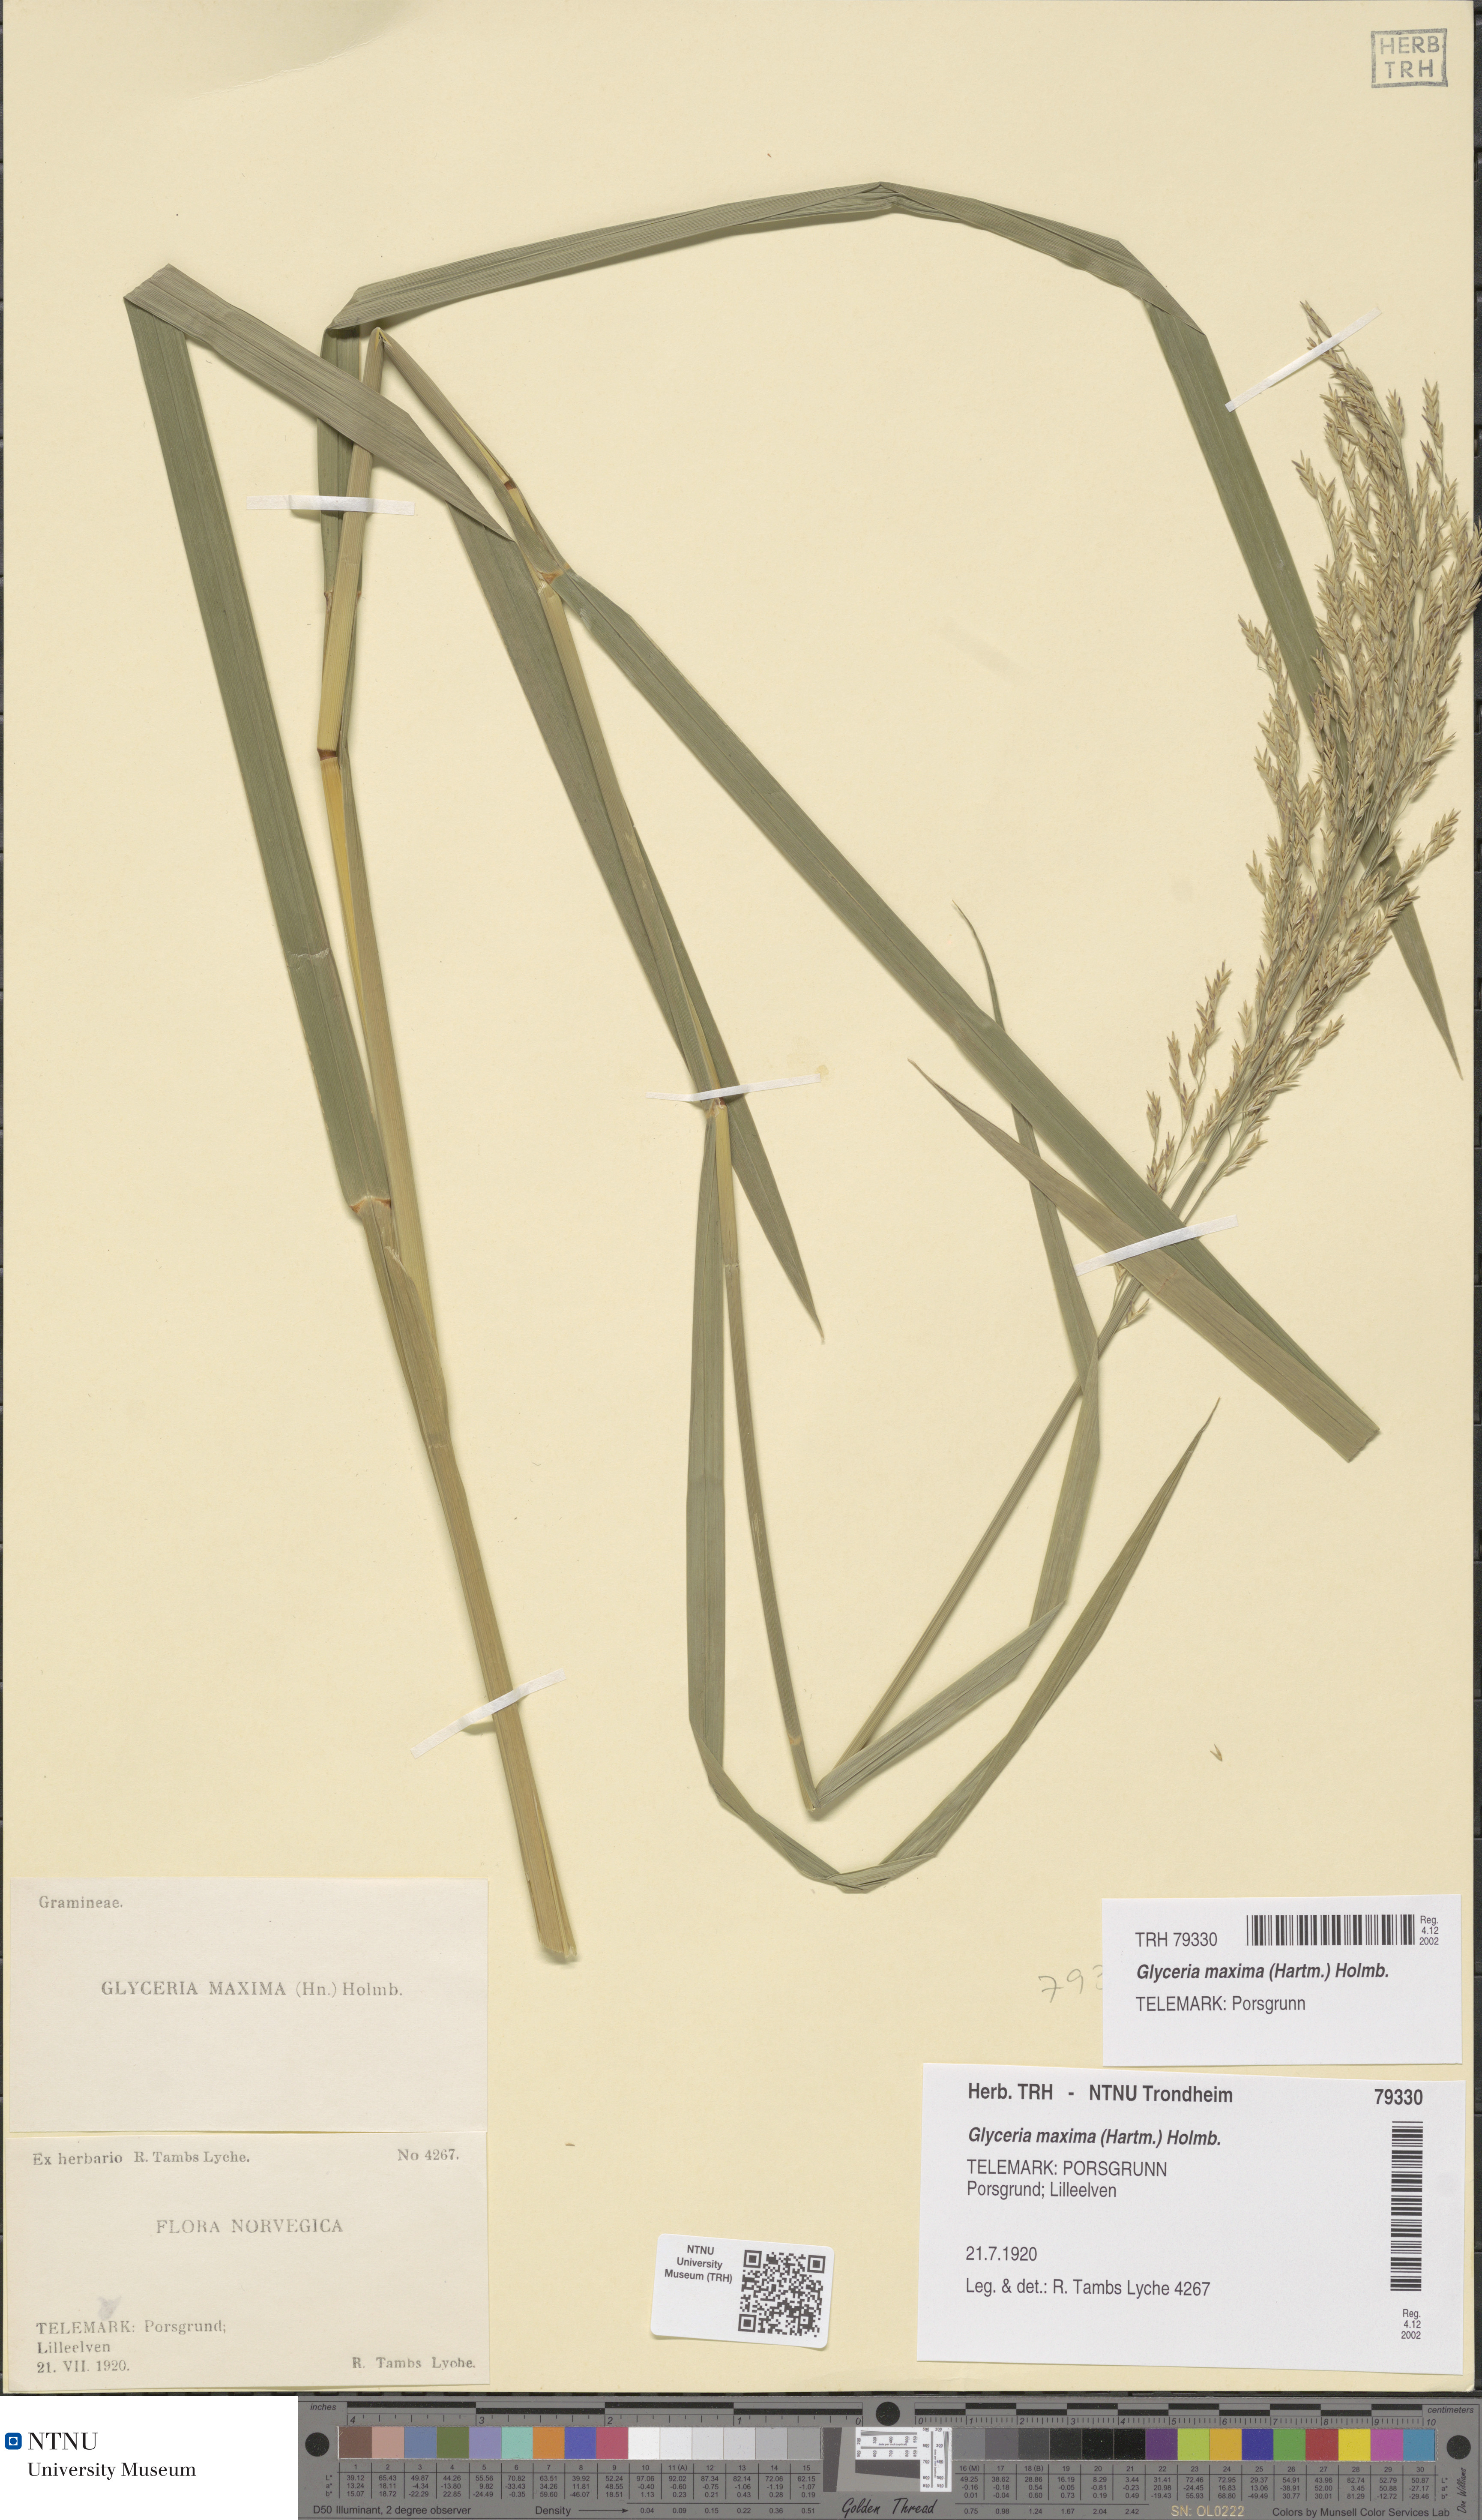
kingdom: Plantae
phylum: Tracheophyta
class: Liliopsida
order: Poales
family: Poaceae
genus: Glyceria
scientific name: Glyceria maxima
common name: Reed mannagrass
